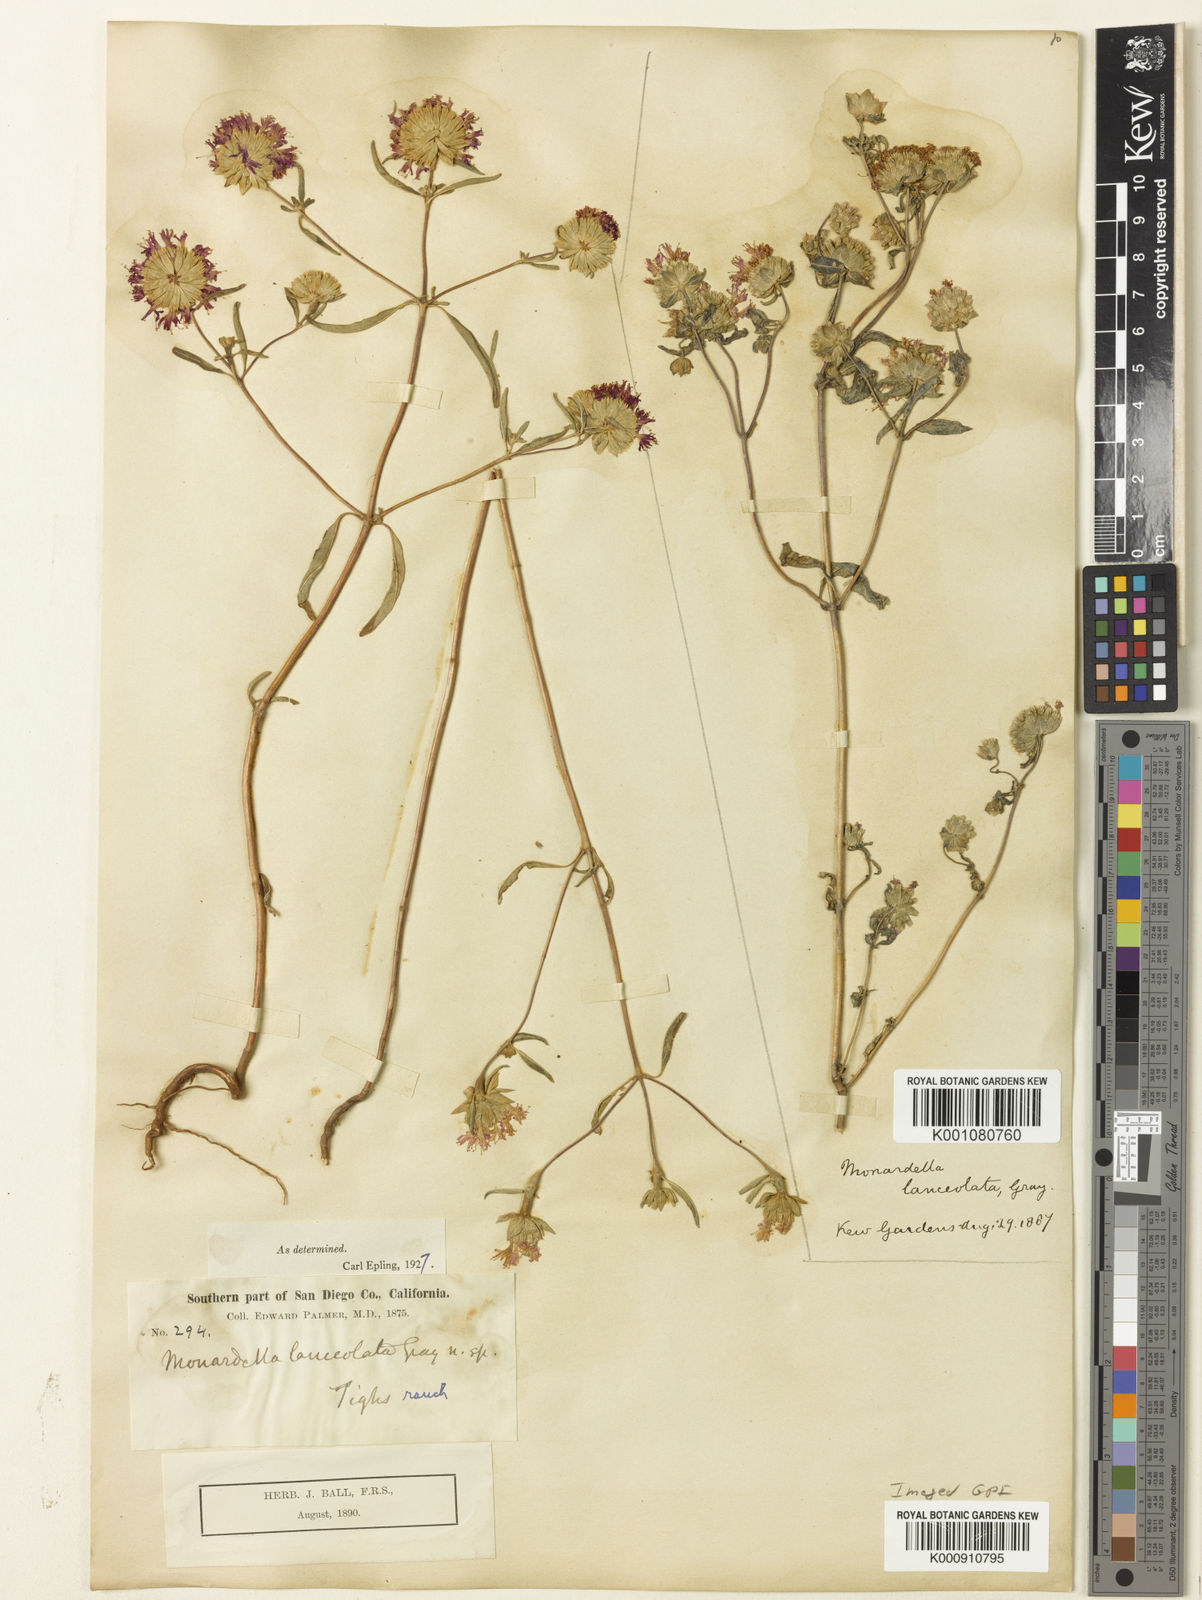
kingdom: Plantae
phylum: Tracheophyta
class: Magnoliopsida
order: Lamiales
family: Lamiaceae
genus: Monardella
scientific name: Monardella breweri
